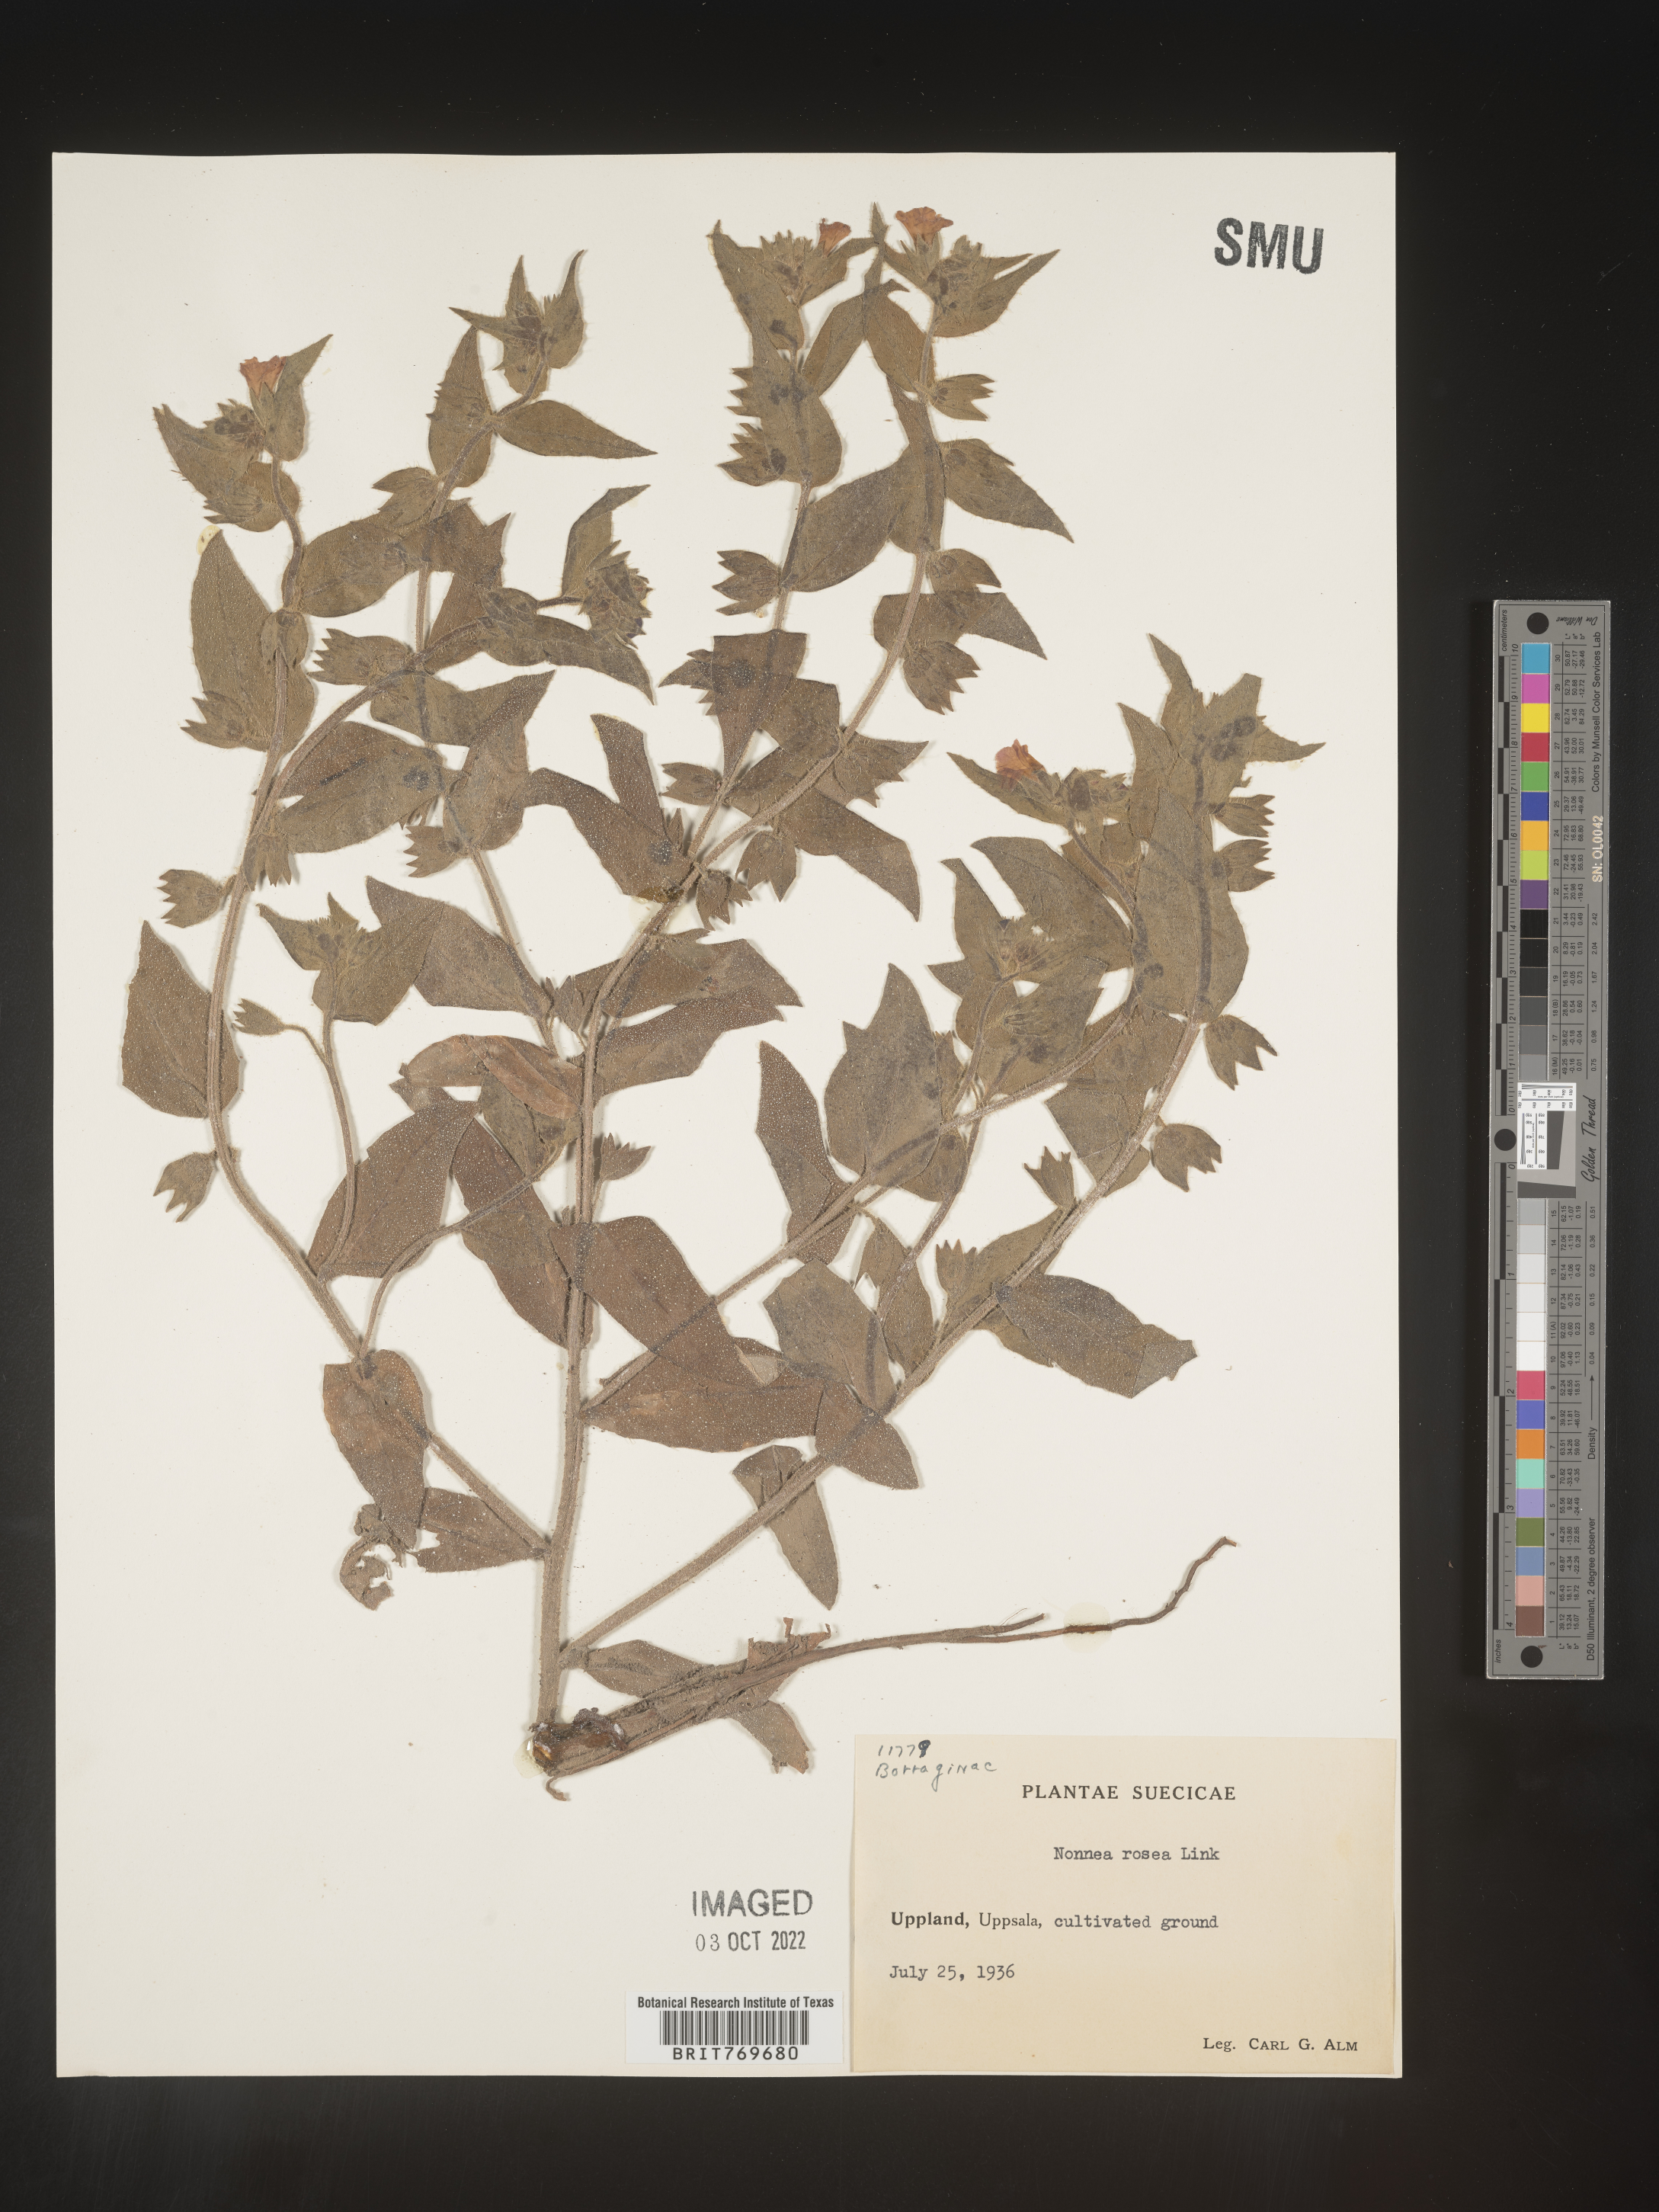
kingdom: Plantae
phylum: Tracheophyta
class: Magnoliopsida
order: Boraginales
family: Boraginaceae
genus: Nonea
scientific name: Nonea lutea
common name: Yellow nonea
